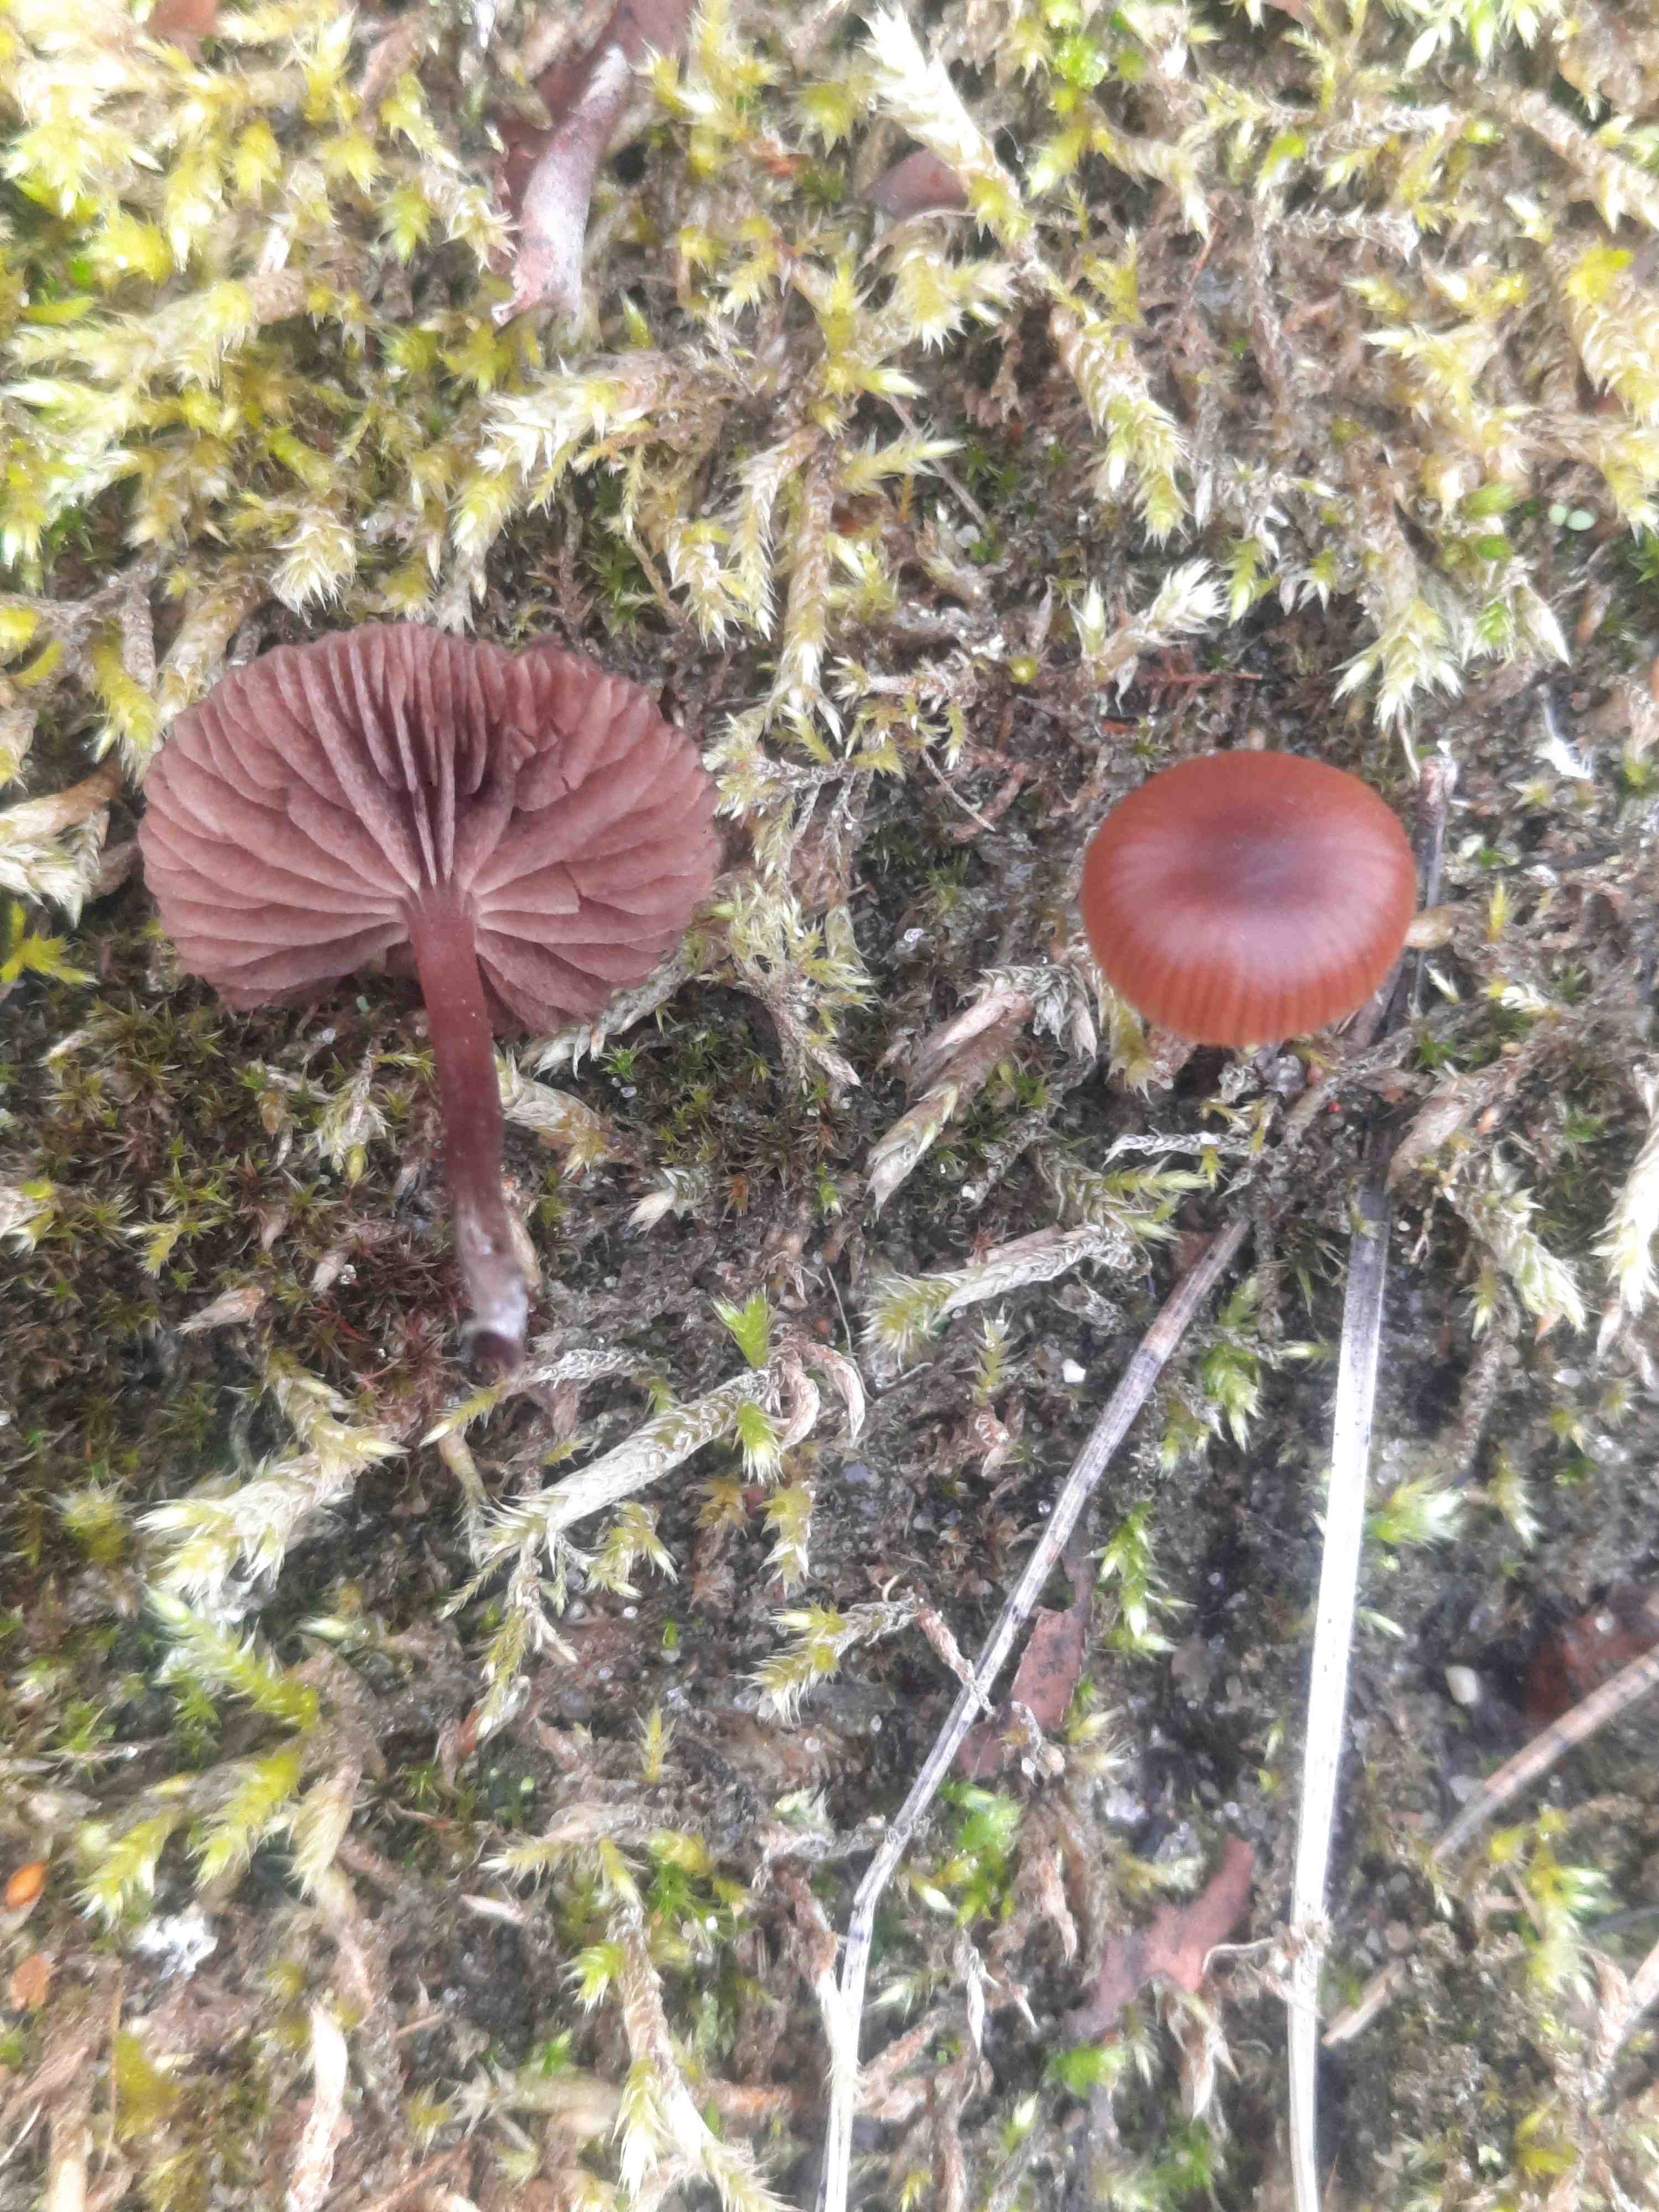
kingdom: Fungi
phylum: Basidiomycota
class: Agaricomycetes
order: Agaricales
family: Strophariaceae
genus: Deconica
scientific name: Deconica montana
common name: rødbrun stråhat
